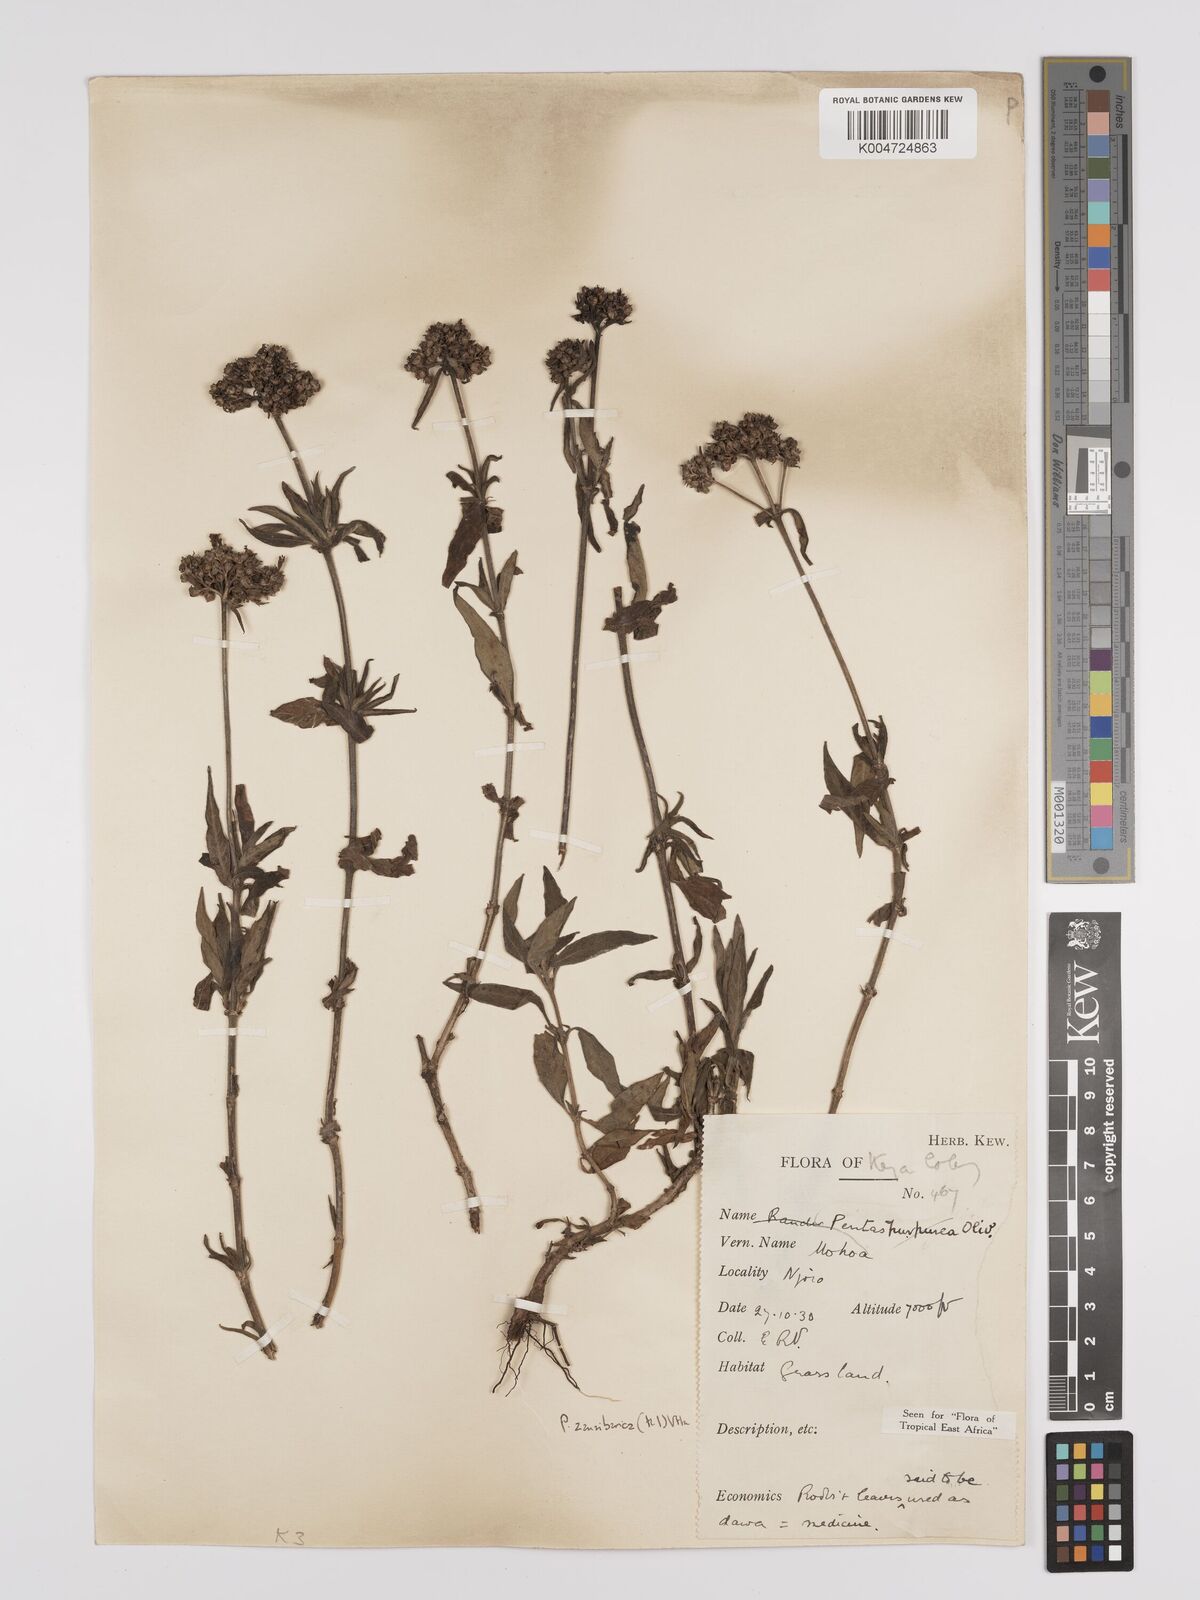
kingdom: Plantae
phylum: Tracheophyta
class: Magnoliopsida
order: Gentianales
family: Rubiaceae
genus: Pentas
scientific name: Pentas zanzibarica
